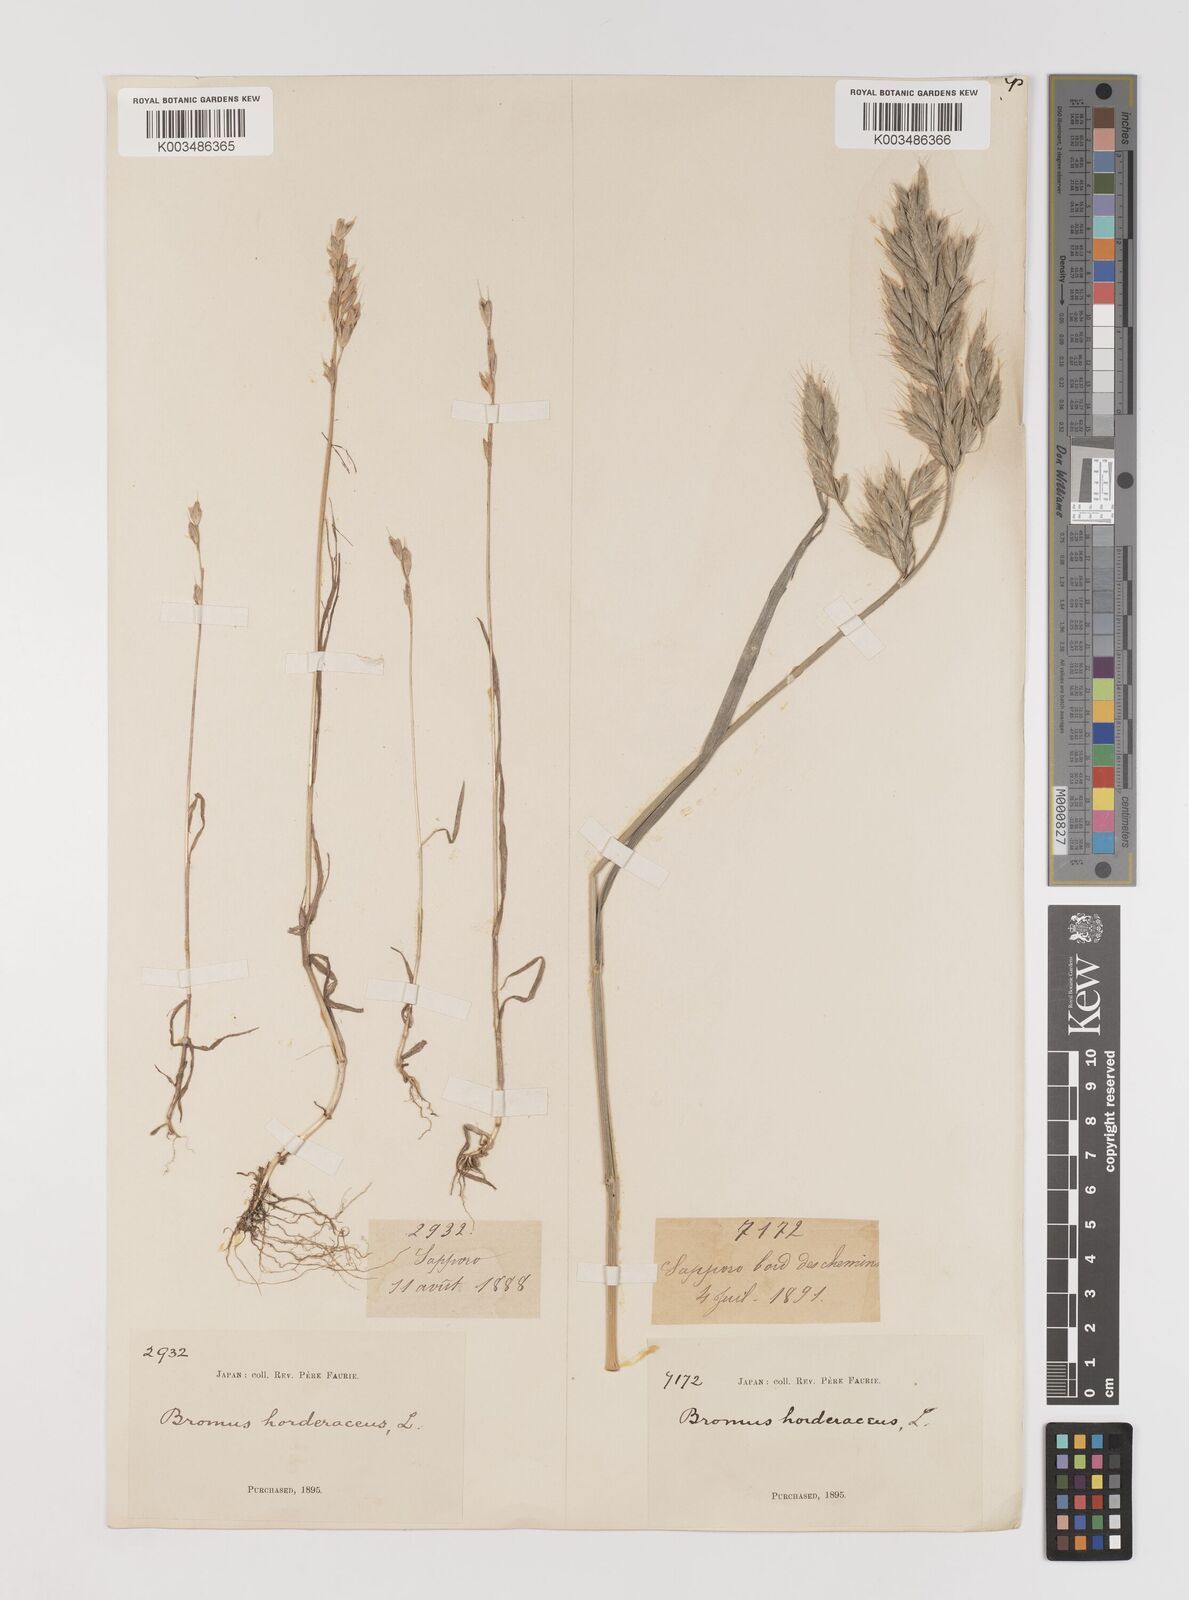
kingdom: Plantae
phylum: Tracheophyta
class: Liliopsida
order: Poales
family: Poaceae
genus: Bromus
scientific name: Bromus hordeaceus
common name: Soft brome
